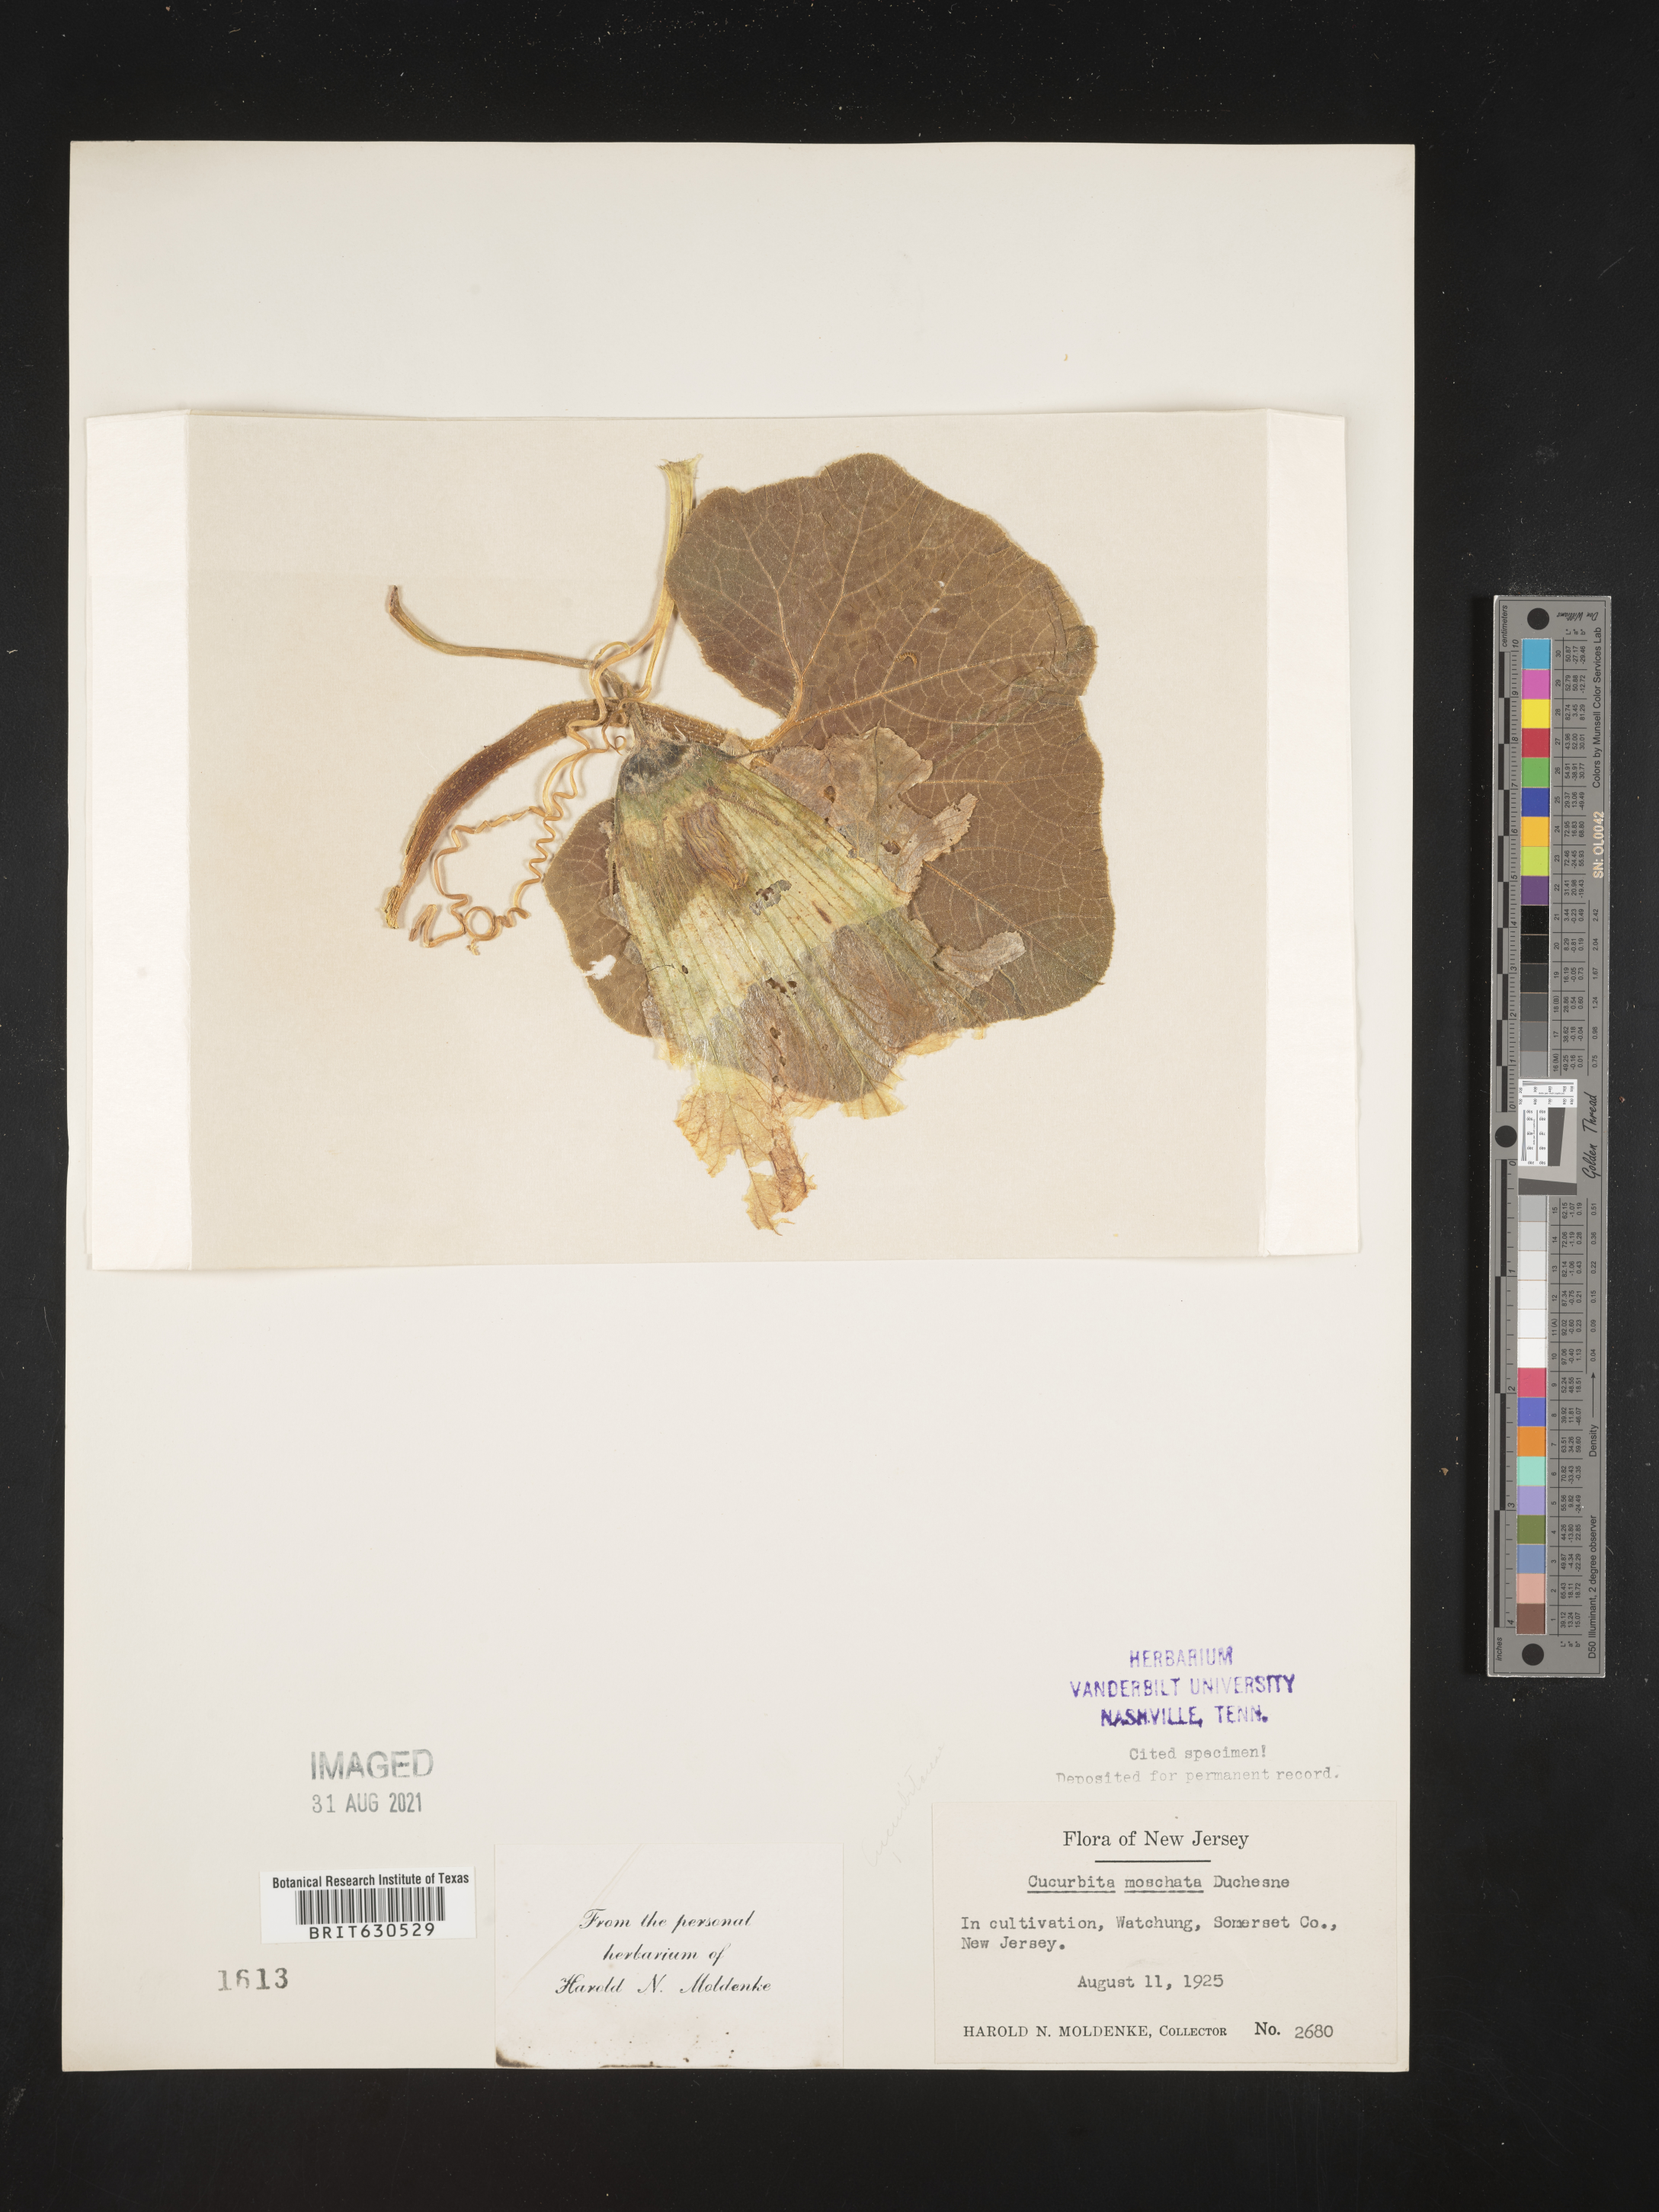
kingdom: Plantae
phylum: Tracheophyta
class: Magnoliopsida
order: Cucurbitales
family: Cucurbitaceae
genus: Cucurbita
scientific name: Cucurbita moschata
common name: Squash / pumpkin
